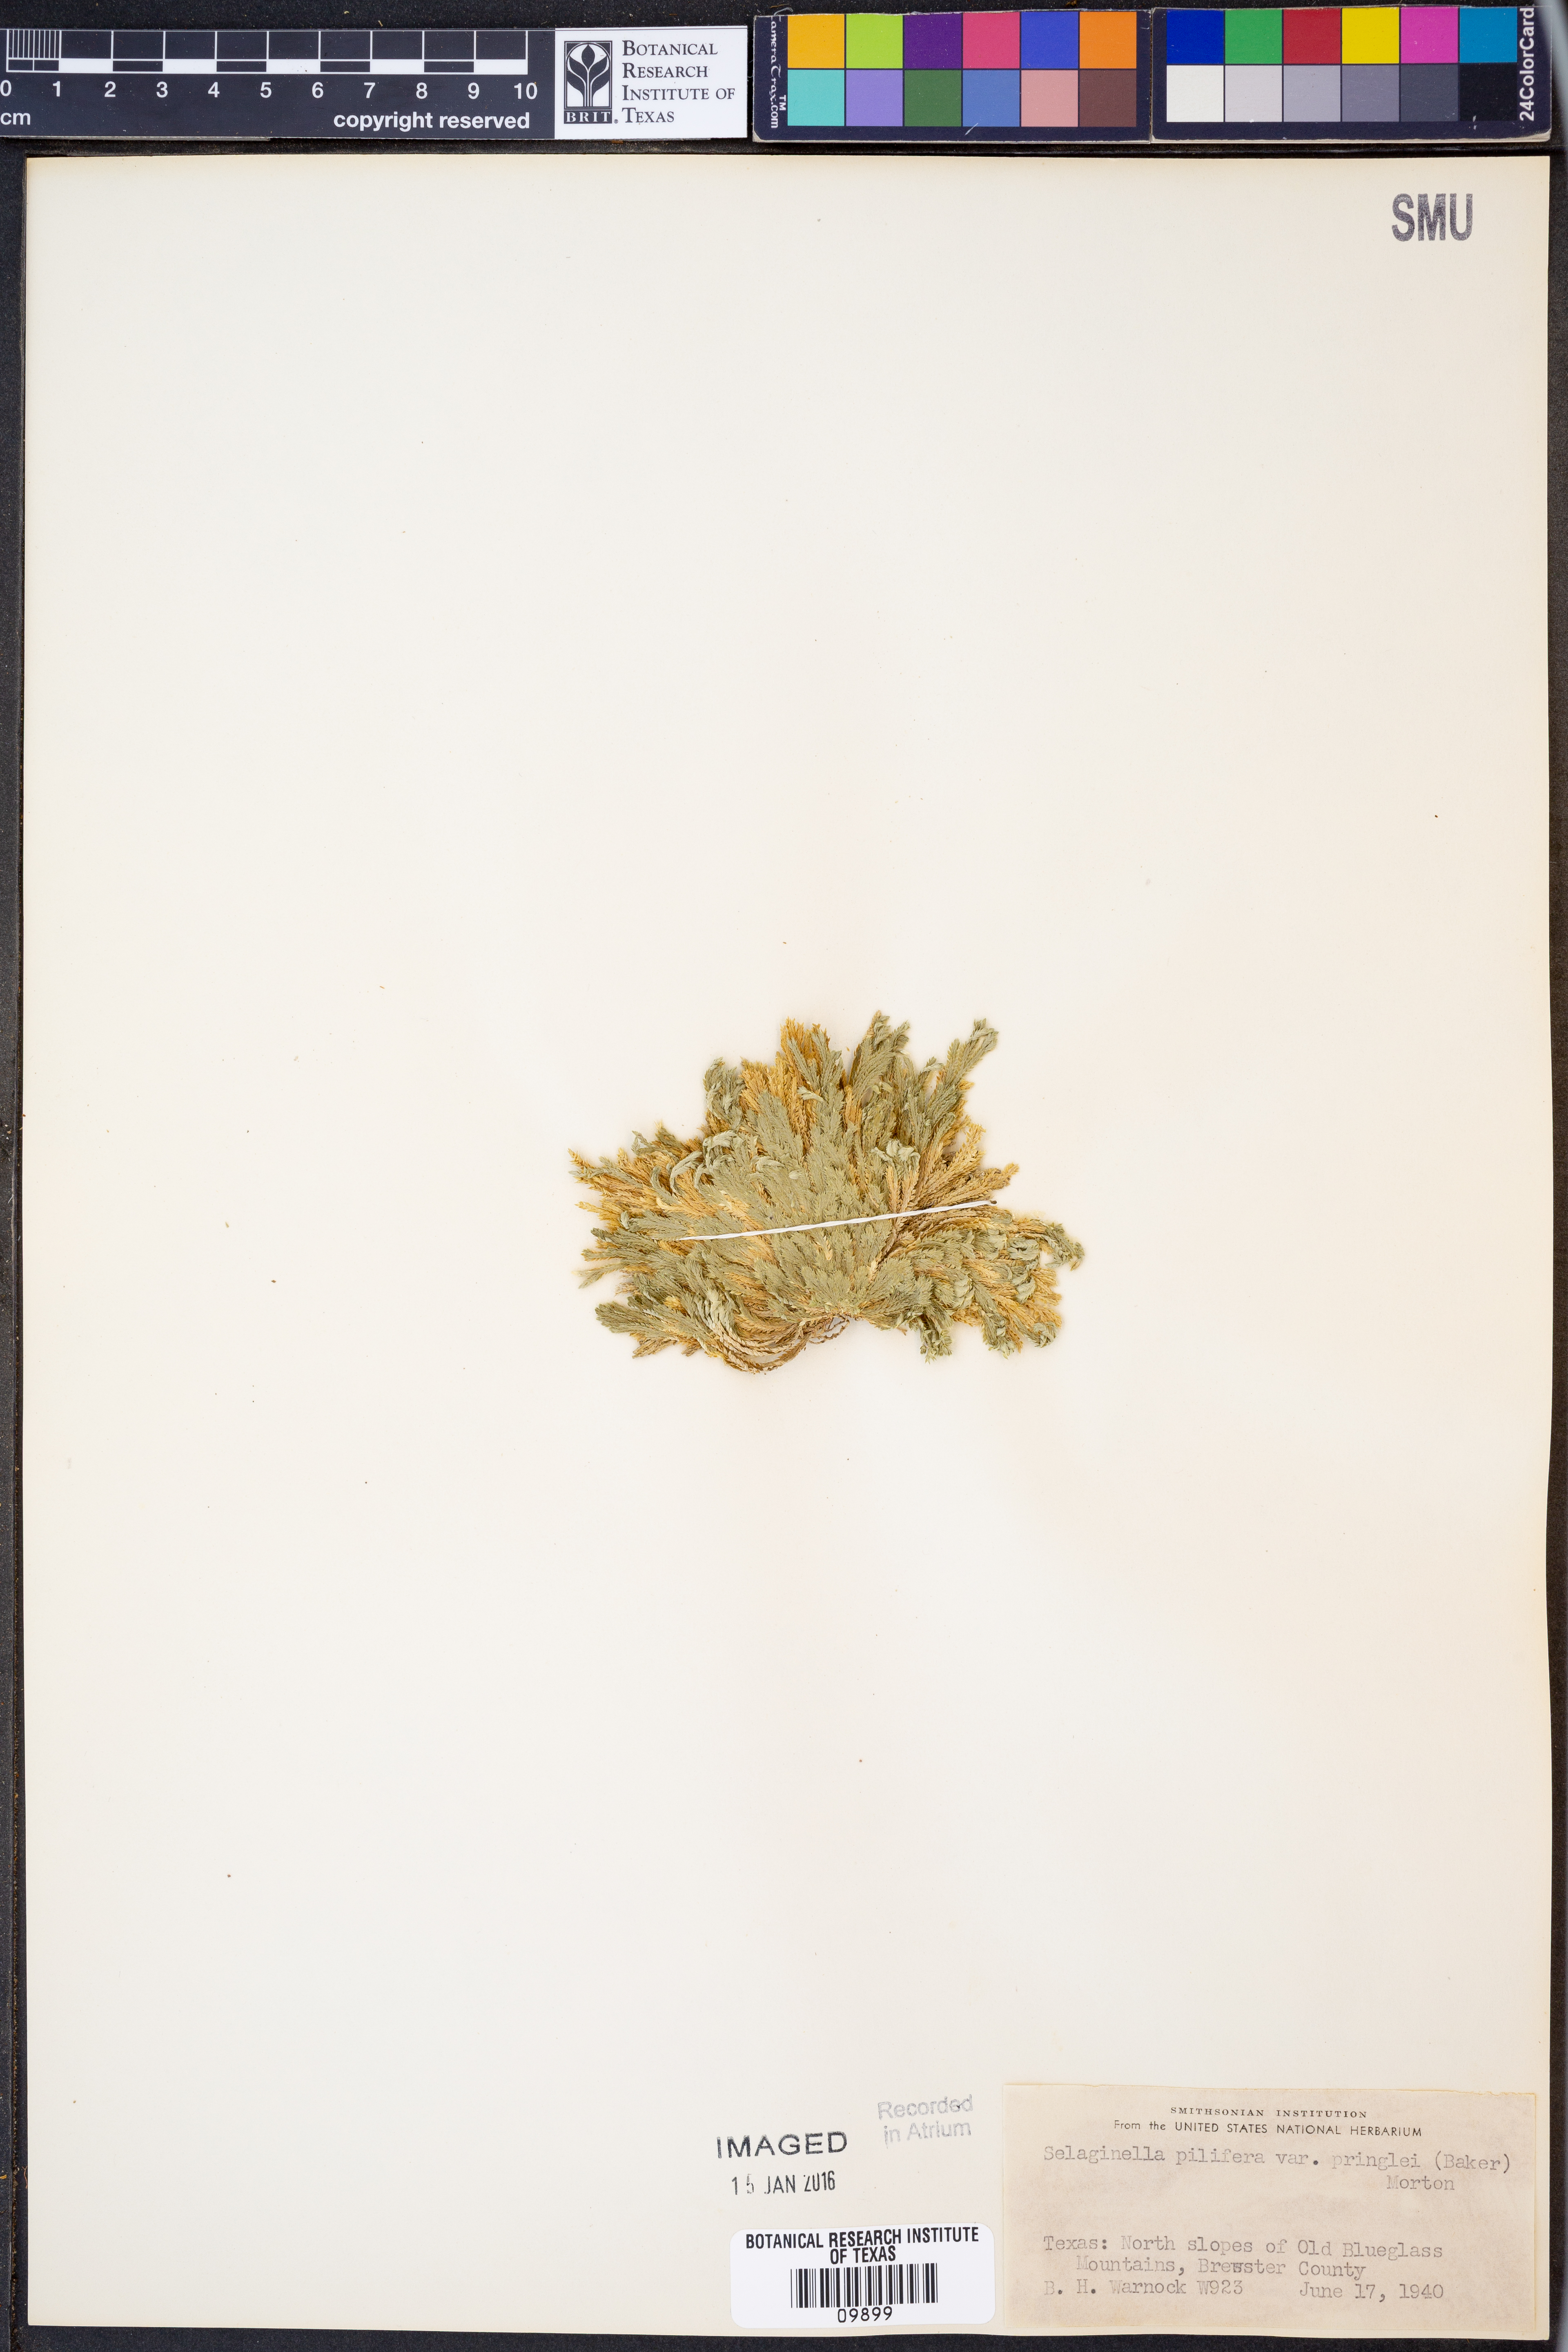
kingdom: Plantae
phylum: Tracheophyta
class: Lycopodiopsida
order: Selaginellales
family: Selaginellaceae
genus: Selaginella
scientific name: Selaginella pilifera
